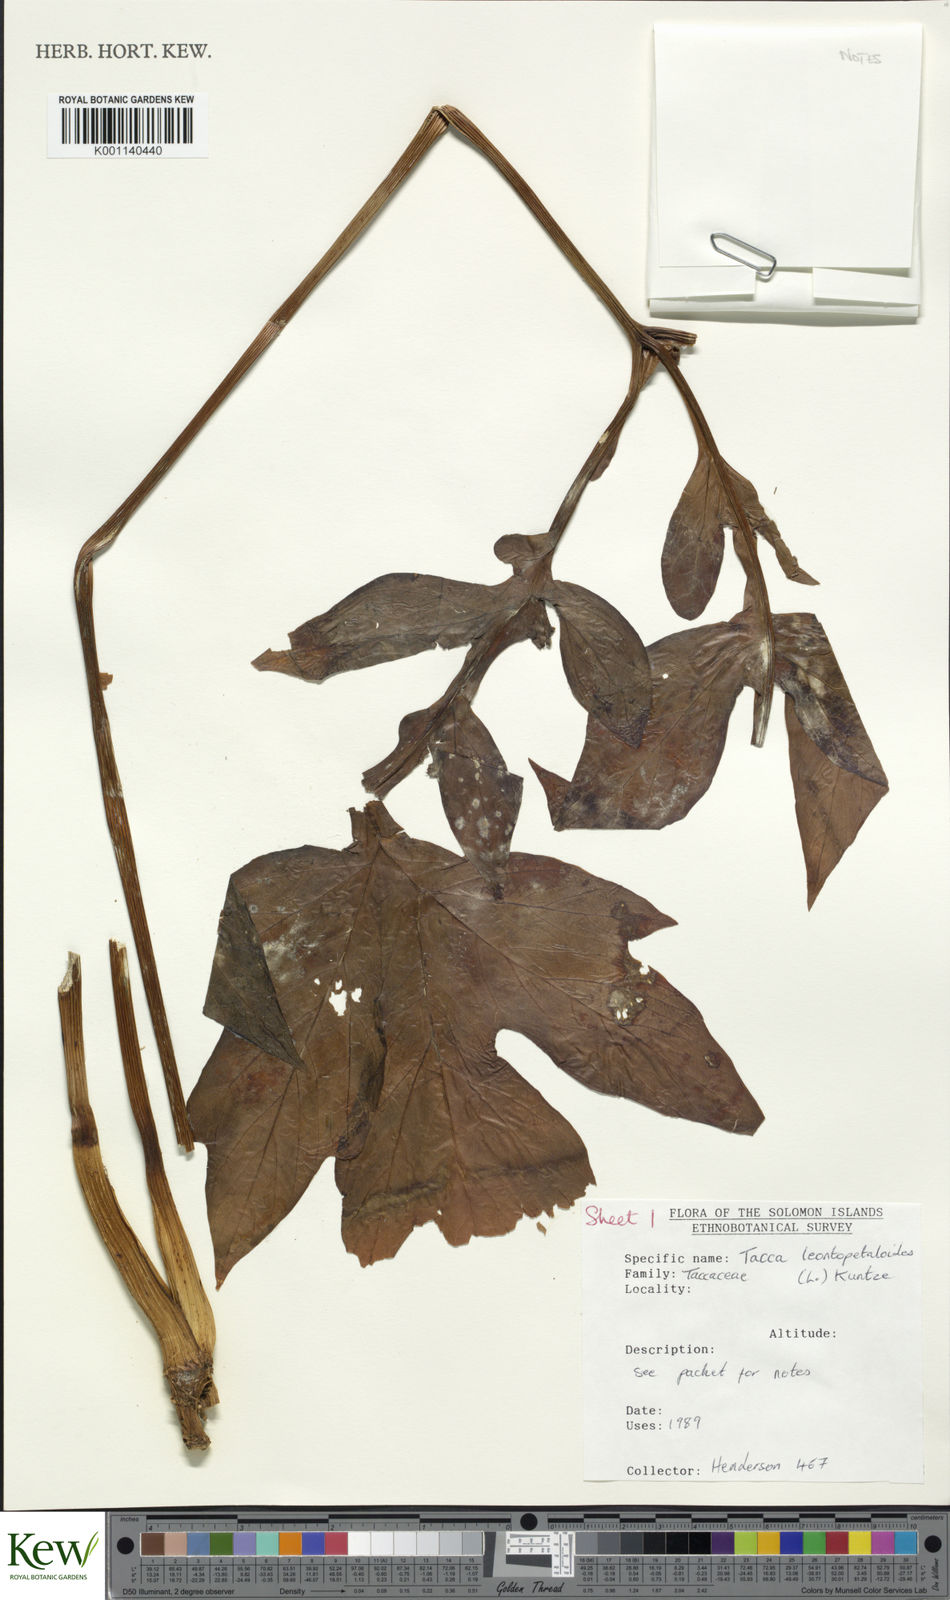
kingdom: Plantae
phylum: Tracheophyta
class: Liliopsida
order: Dioscoreales
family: Dioscoreaceae
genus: Tacca
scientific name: Tacca leontopetaloides
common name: Arrowroot
